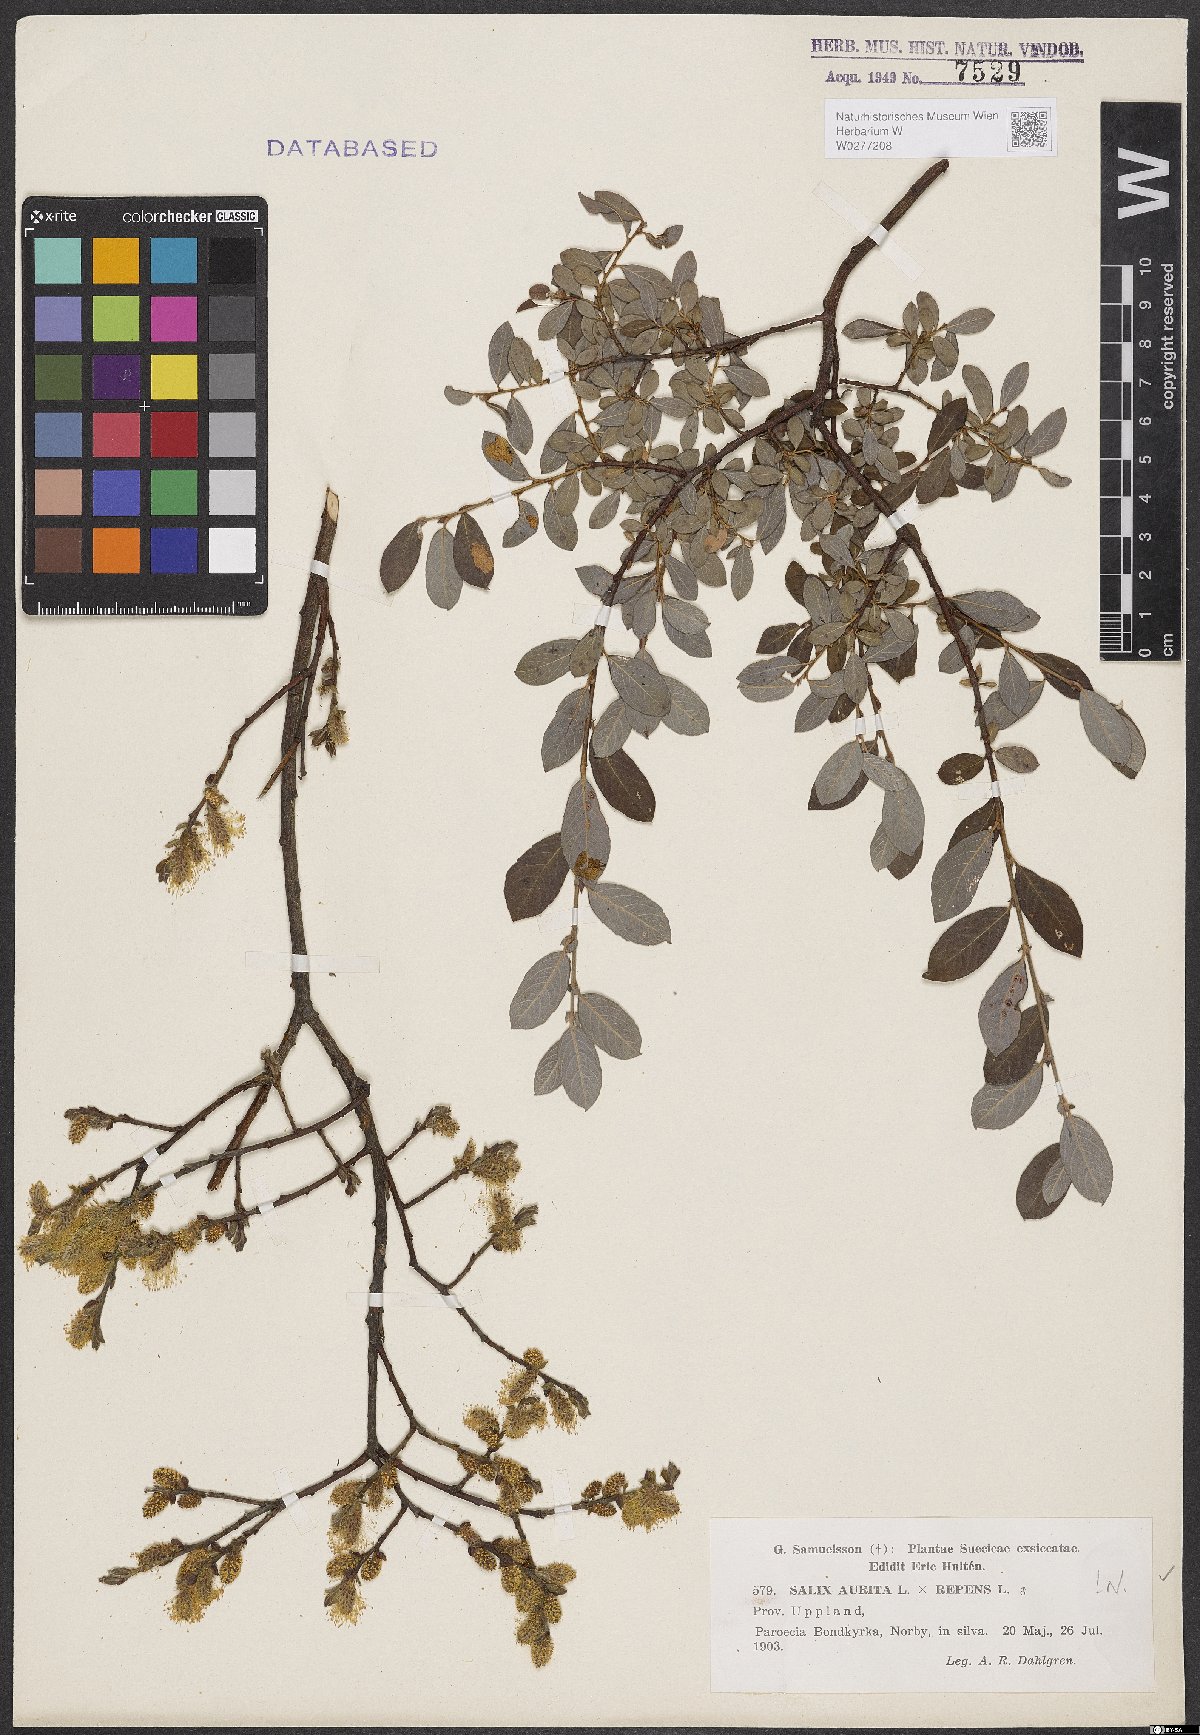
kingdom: Plantae
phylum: Tracheophyta
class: Magnoliopsida
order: Malpighiales
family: Salicaceae
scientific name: Salicaceae
